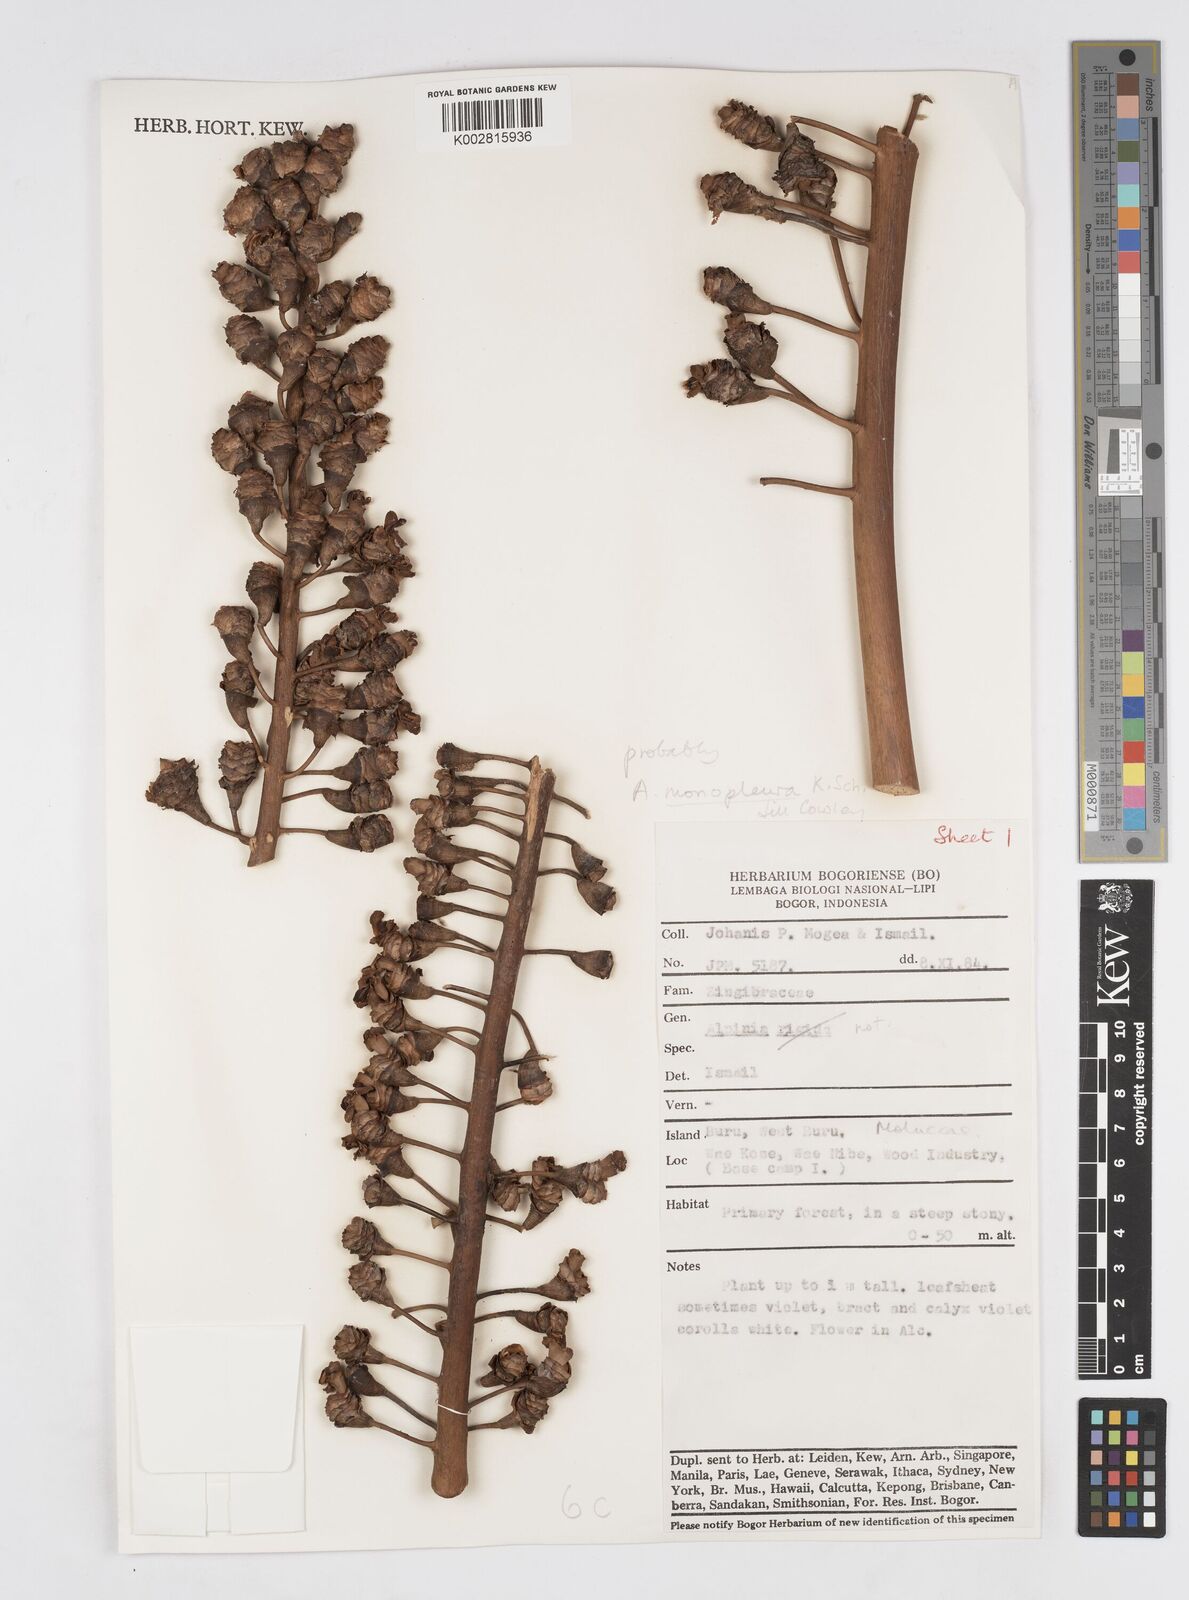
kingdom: Plantae
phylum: Tracheophyta
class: Liliopsida
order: Zingiberales
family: Zingiberaceae
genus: Alpinia
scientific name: Alpinia monopleura
